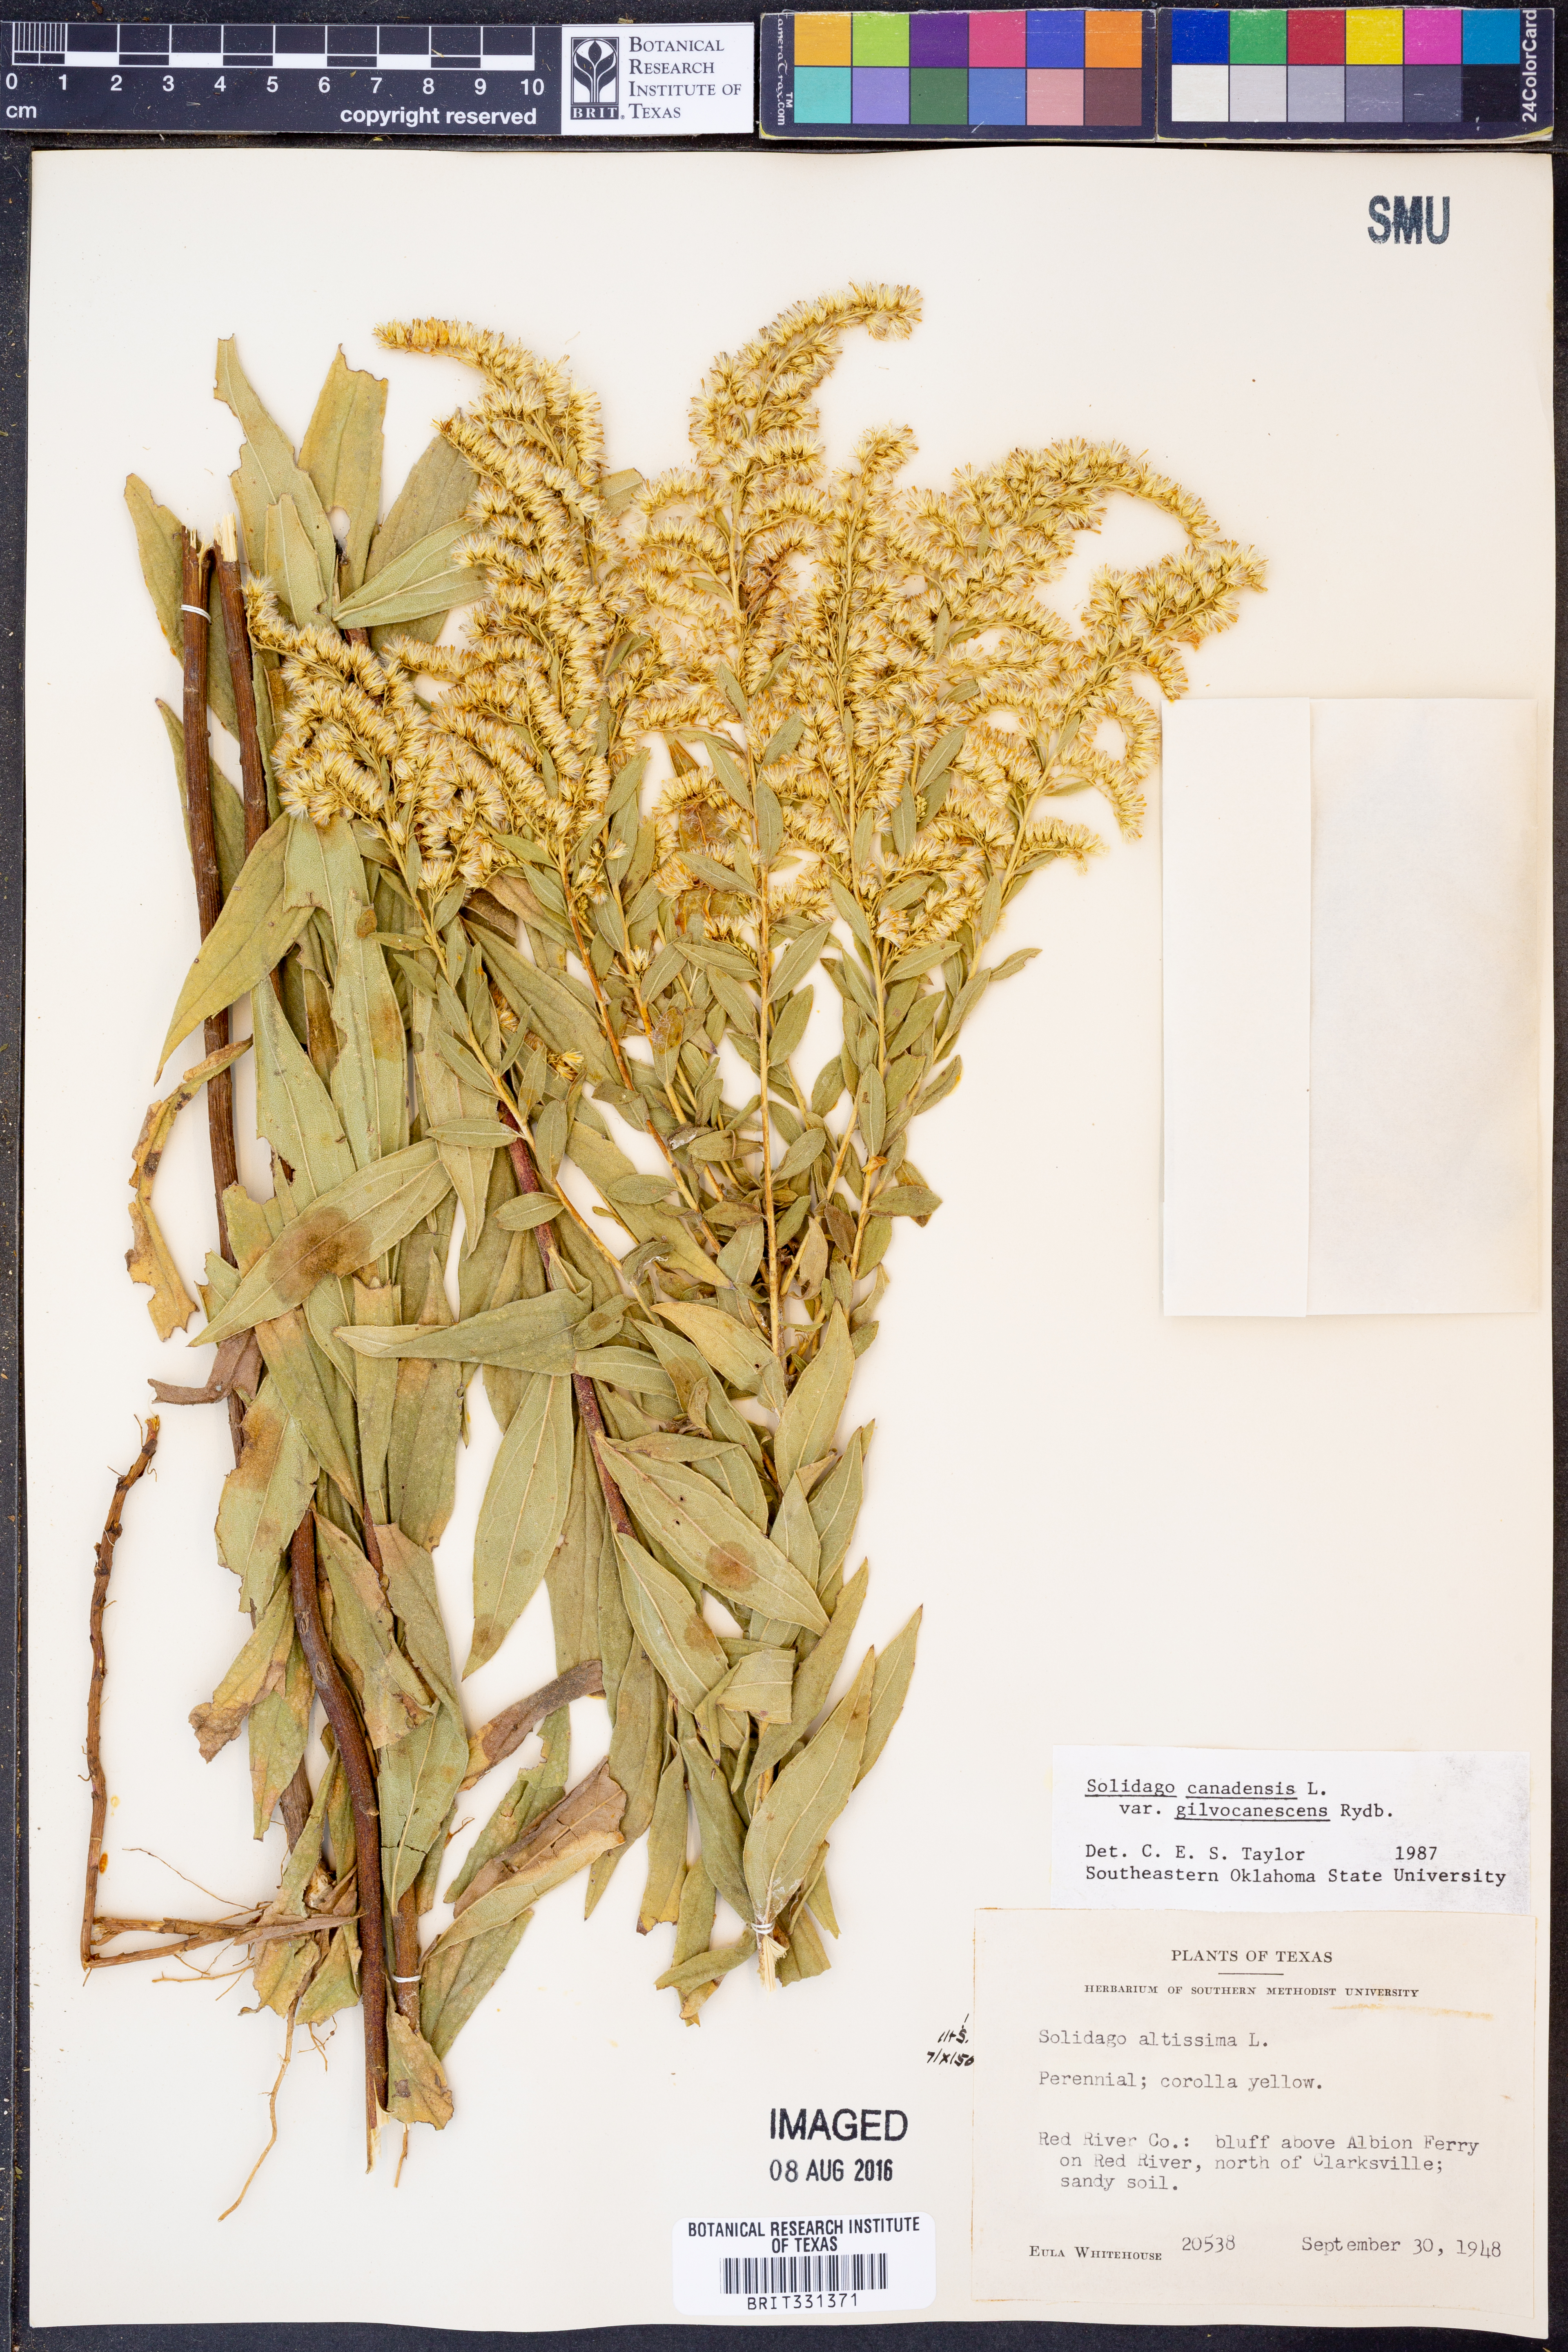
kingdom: Plantae
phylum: Tracheophyta
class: Magnoliopsida
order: Asterales
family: Asteraceae
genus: Solidago
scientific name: Solidago altissima
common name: Late goldenrod
